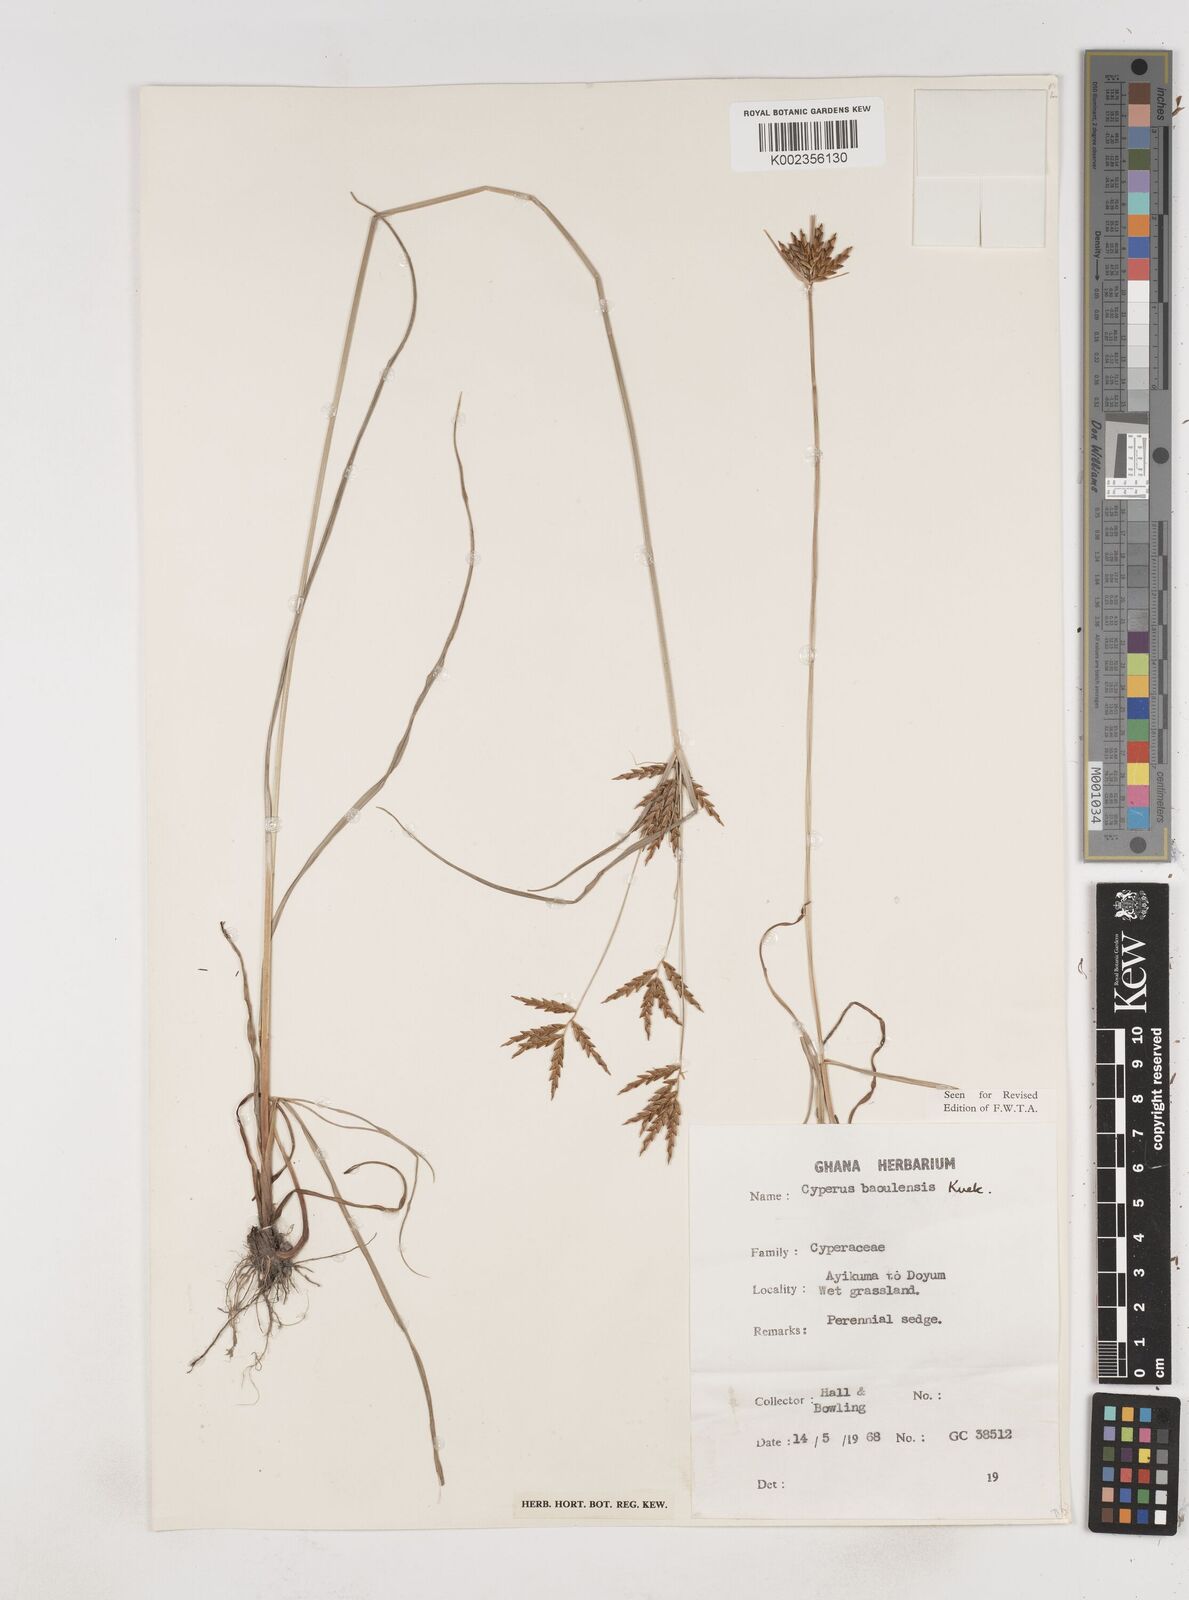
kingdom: Plantae
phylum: Tracheophyta
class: Liliopsida
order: Poales
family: Cyperaceae
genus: Cyperus
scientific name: Cyperus baoulensis
